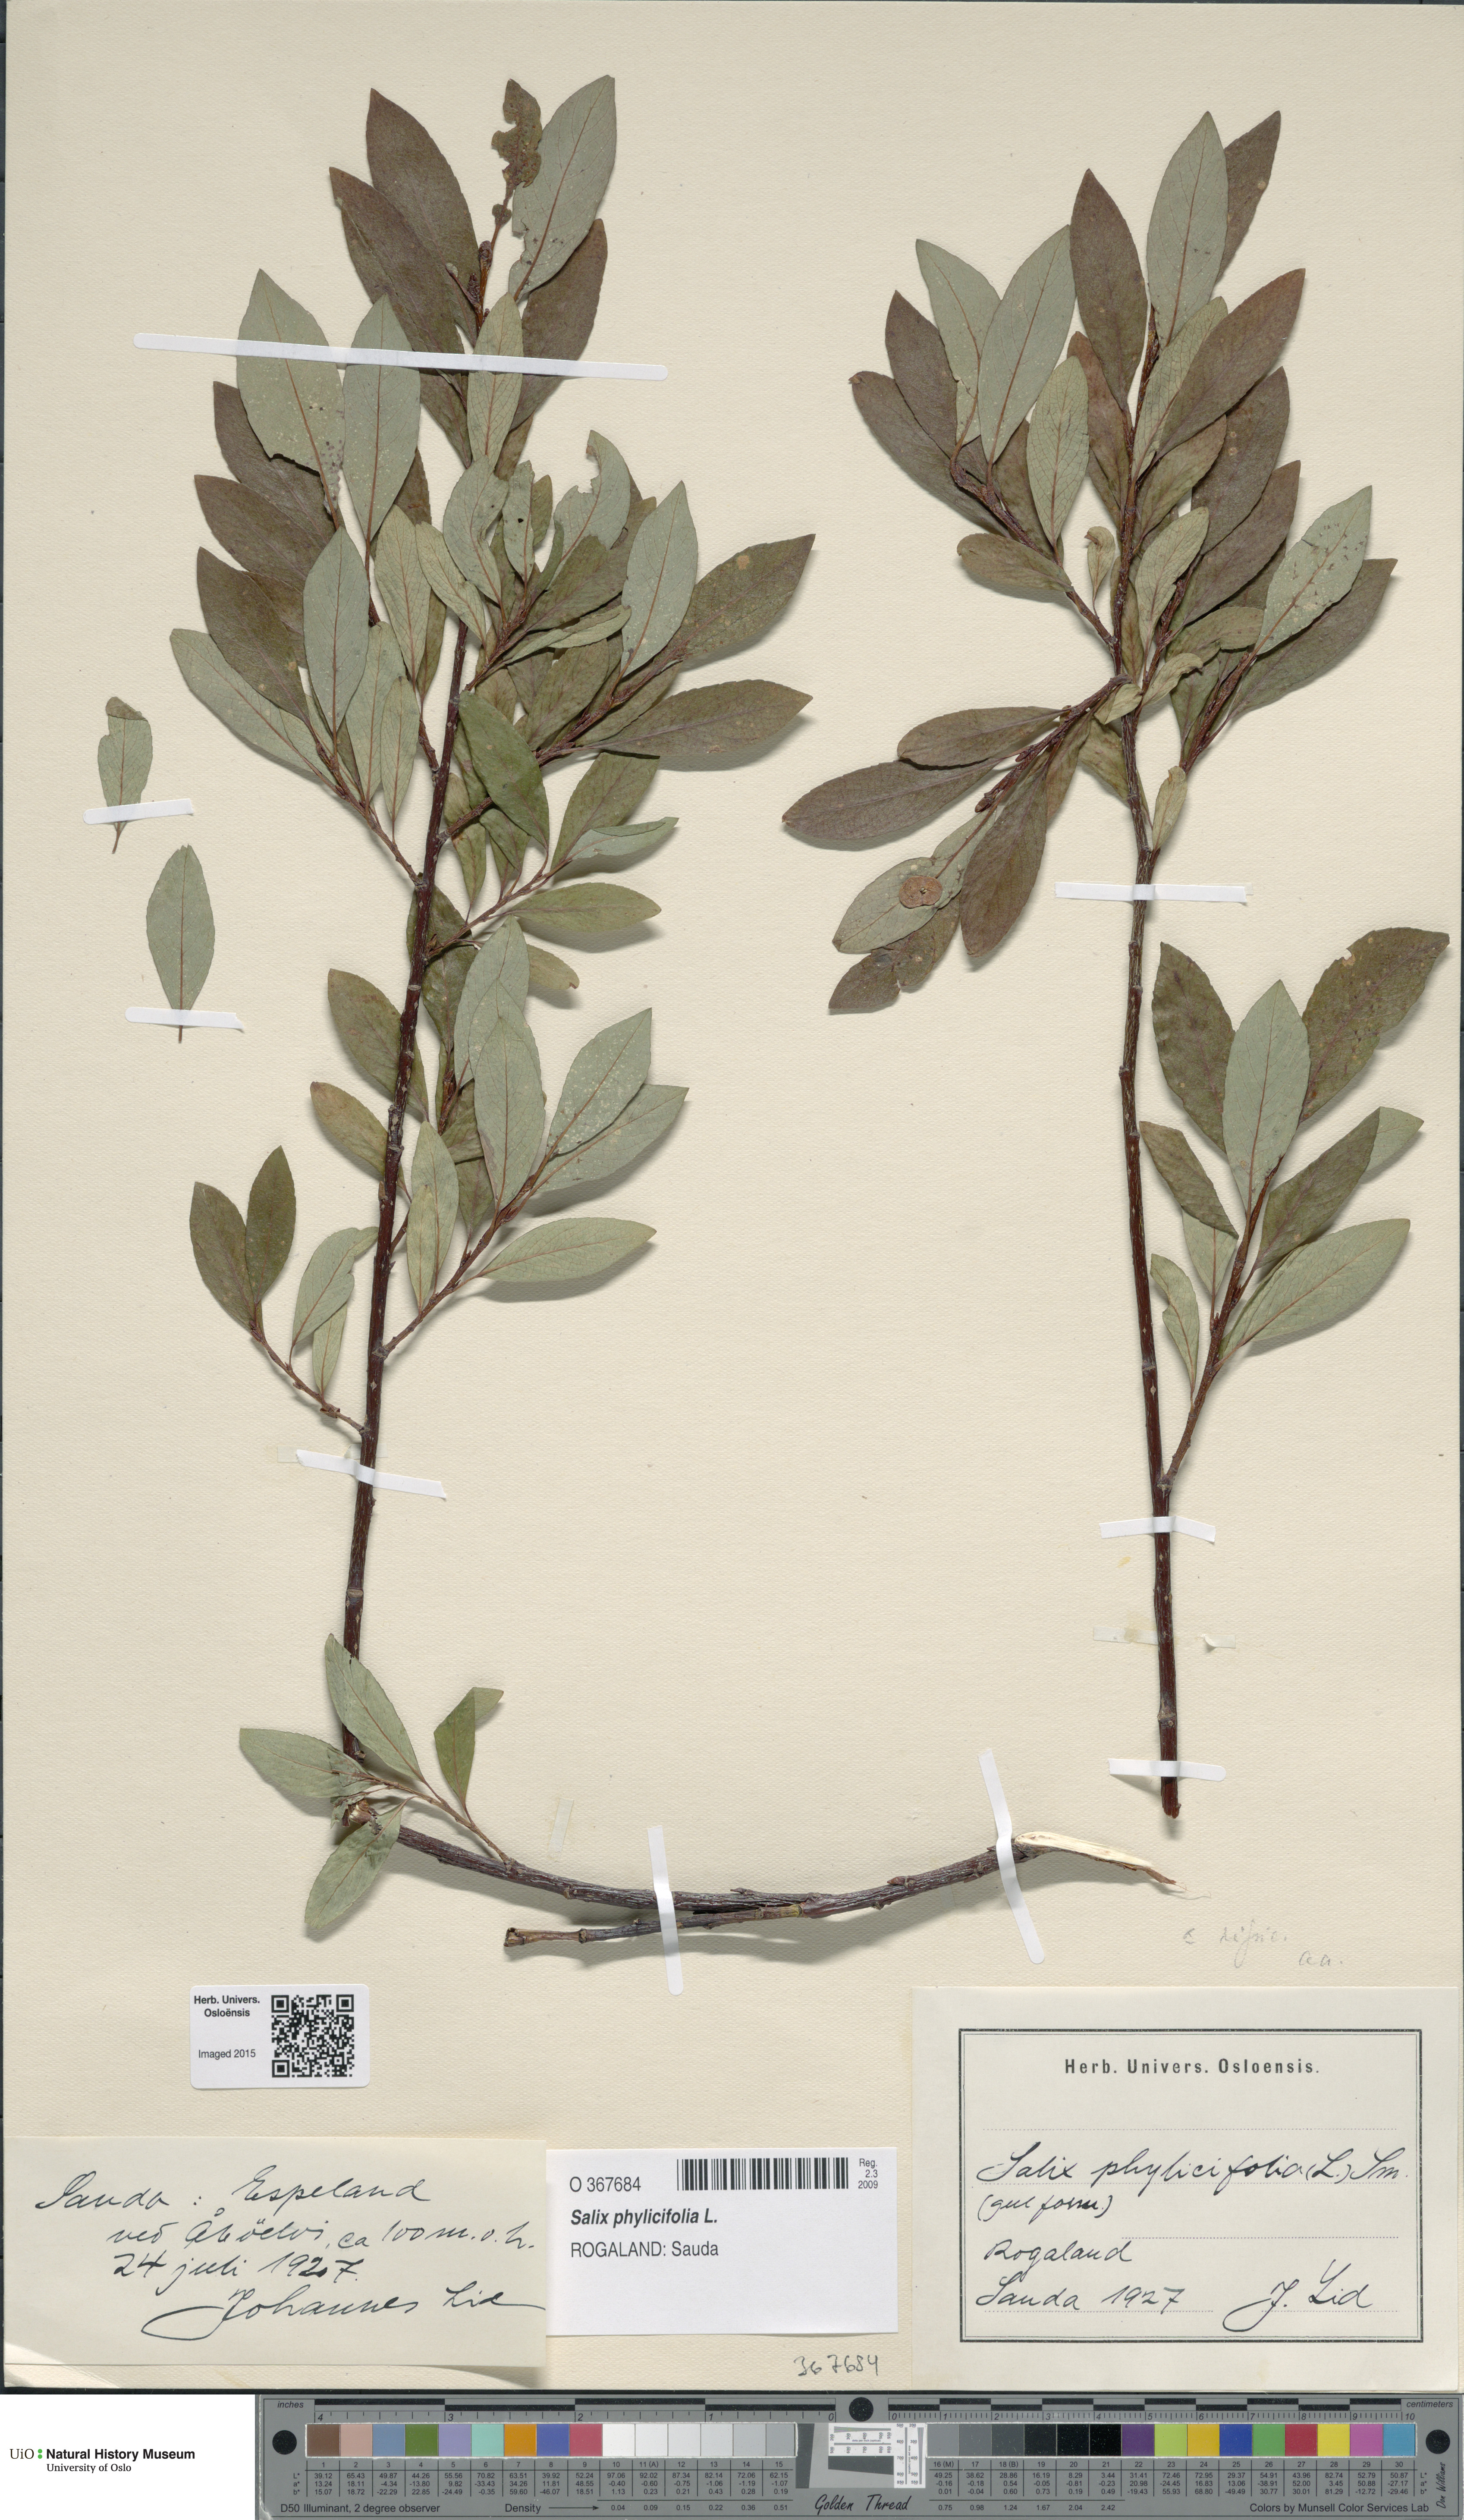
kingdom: Plantae
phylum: Tracheophyta
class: Magnoliopsida
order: Malpighiales
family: Salicaceae
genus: Salix
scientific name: Salix phylicifolia
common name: Tea-leaved willow
